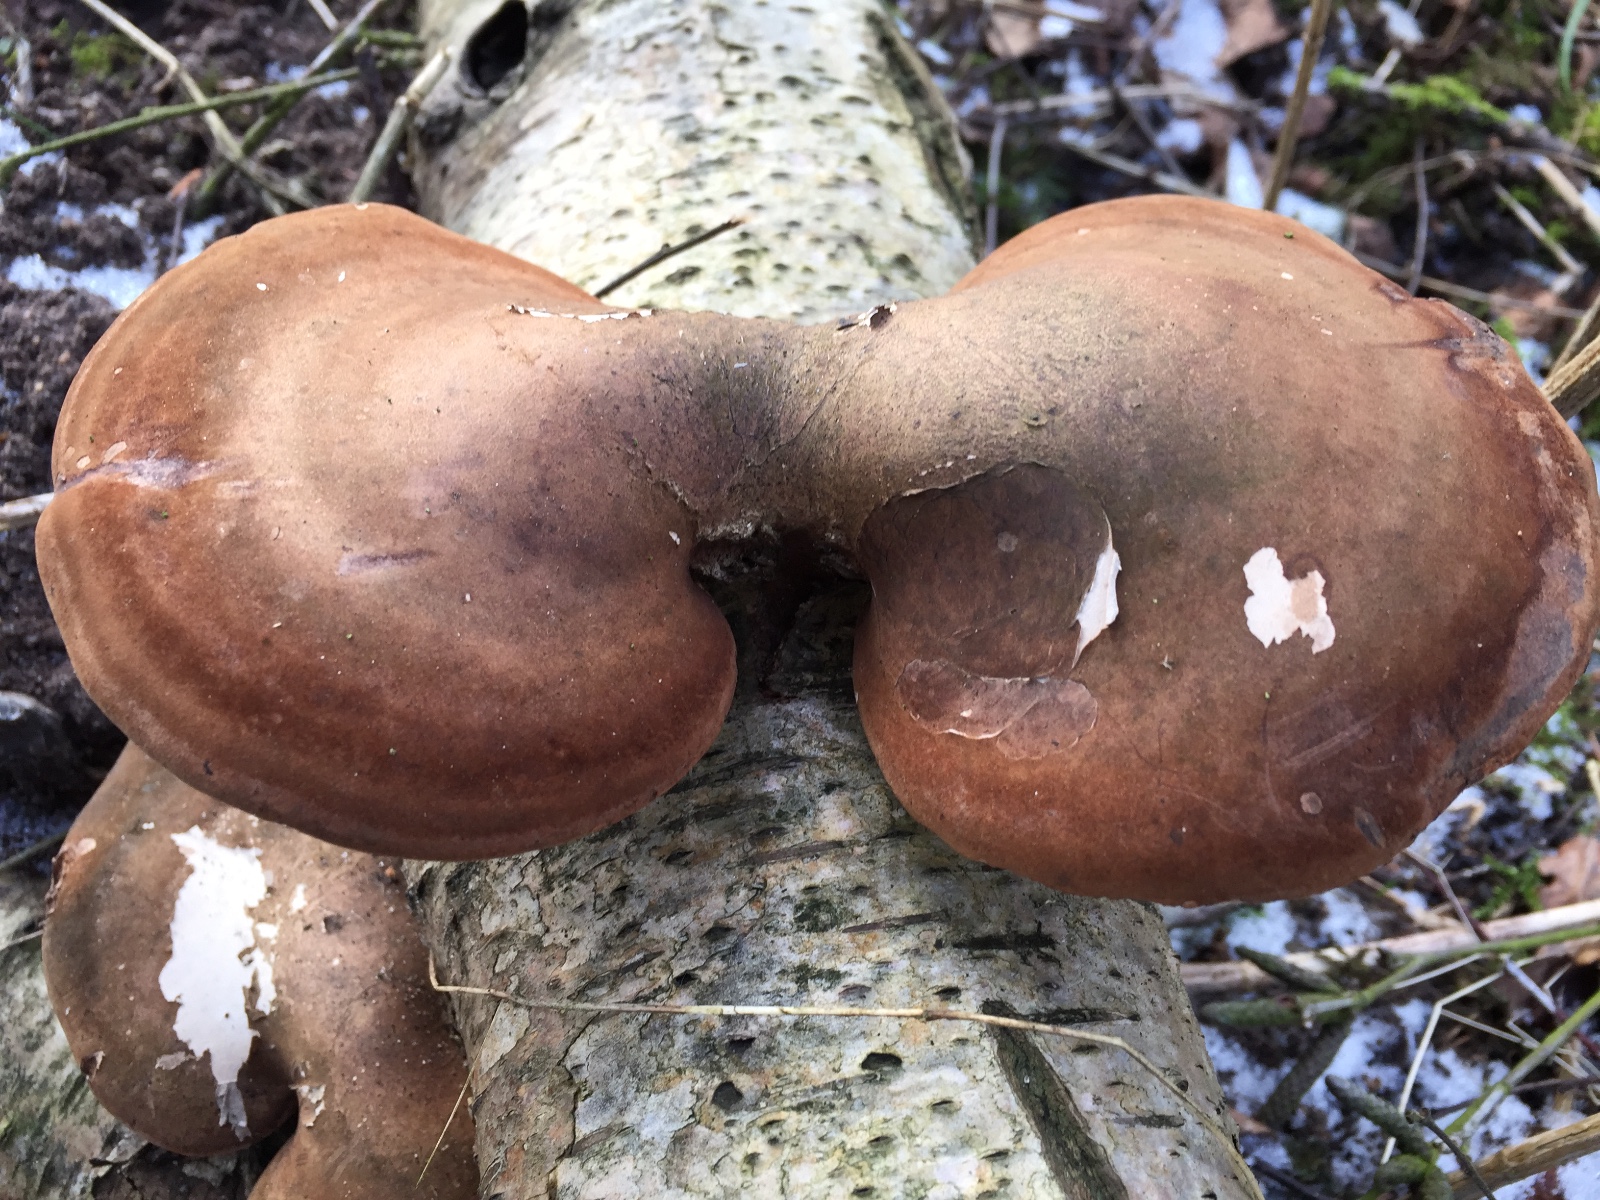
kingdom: Fungi
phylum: Basidiomycota
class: Agaricomycetes
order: Polyporales
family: Fomitopsidaceae
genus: Fomitopsis
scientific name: Fomitopsis betulina
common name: birkeporesvamp
